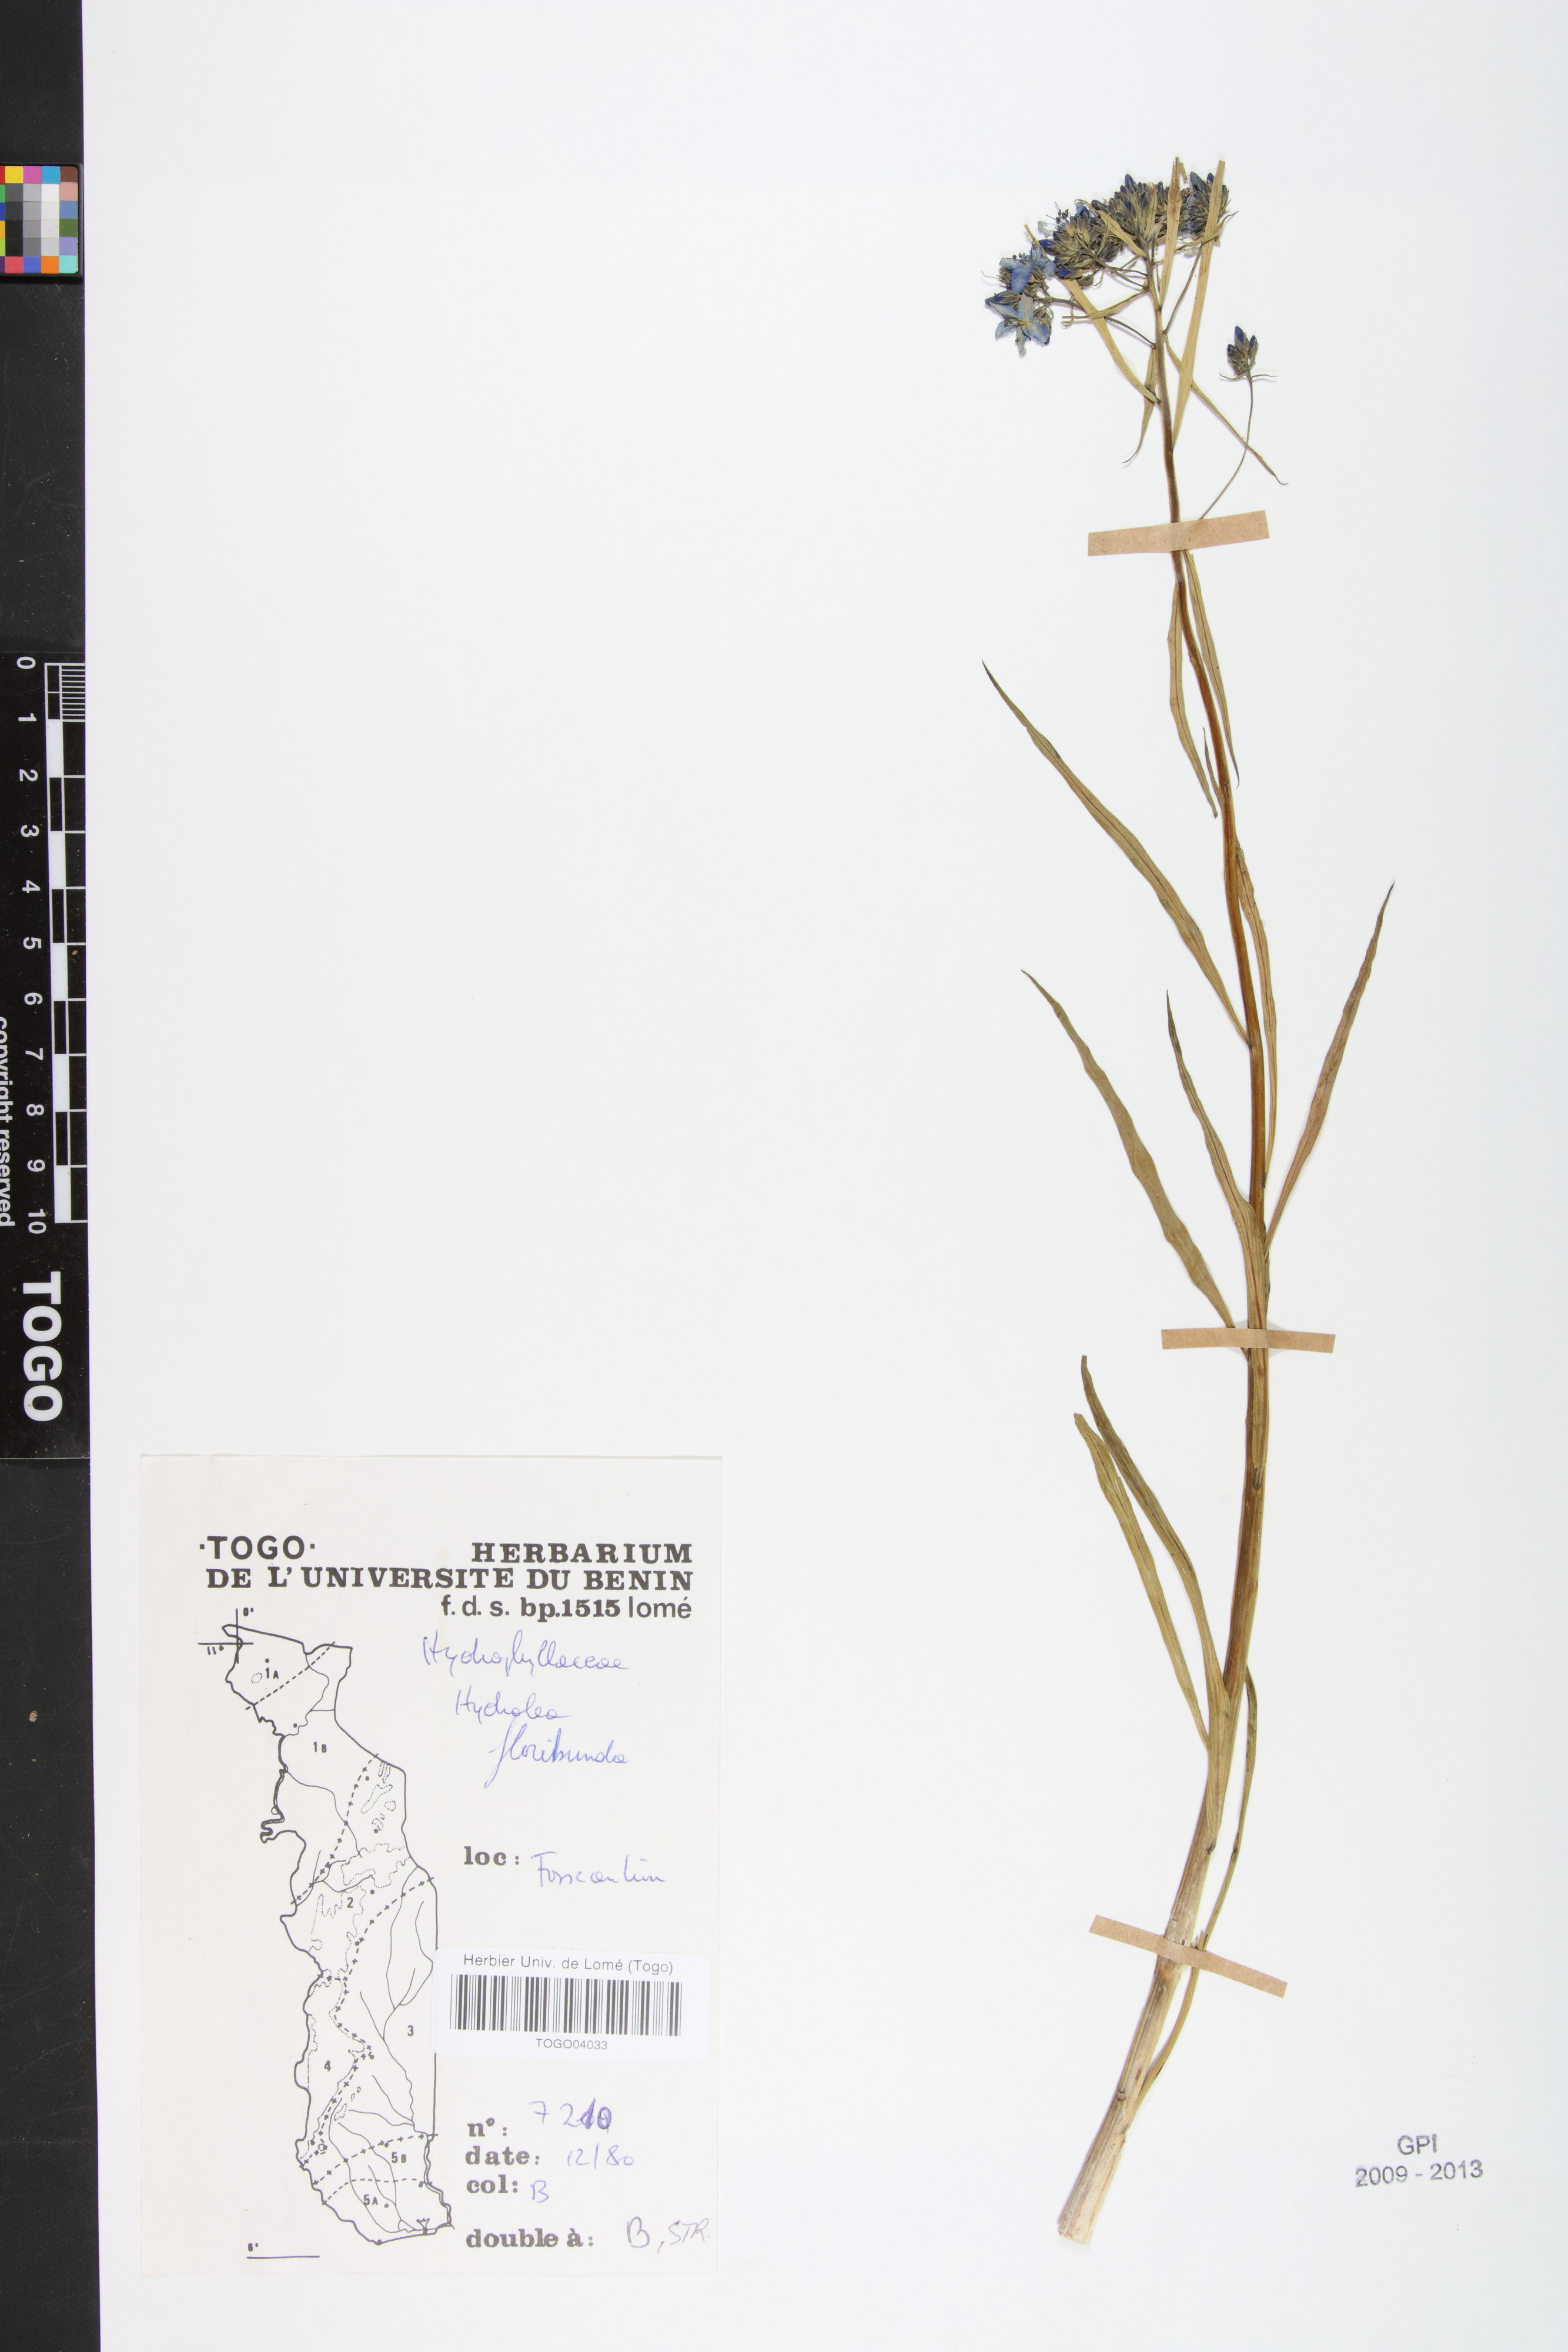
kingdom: Plantae
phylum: Tracheophyta
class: Magnoliopsida
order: Solanales
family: Hydroleaceae
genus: Hydrolea
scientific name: Hydrolea floribunda
